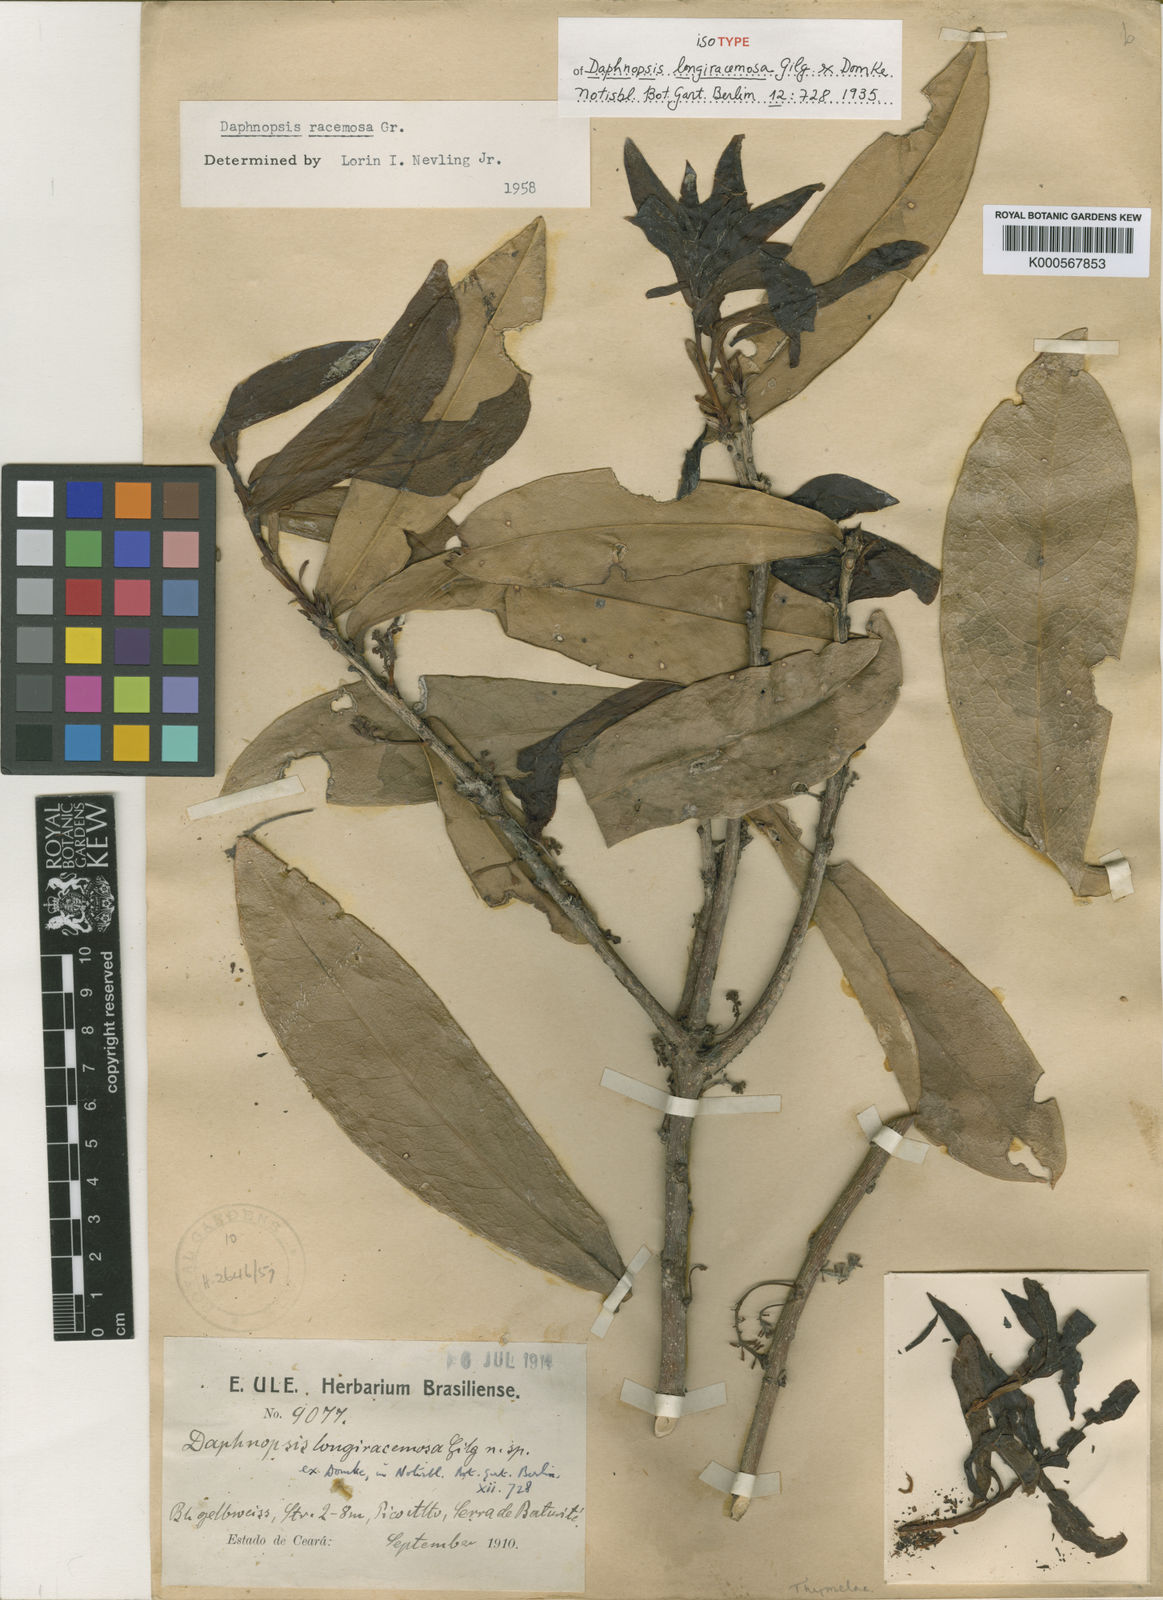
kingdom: Plantae
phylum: Tracheophyta
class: Magnoliopsida
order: Malvales
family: Thymelaeaceae
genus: Daphnopsis
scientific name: Daphnopsis racemosa
